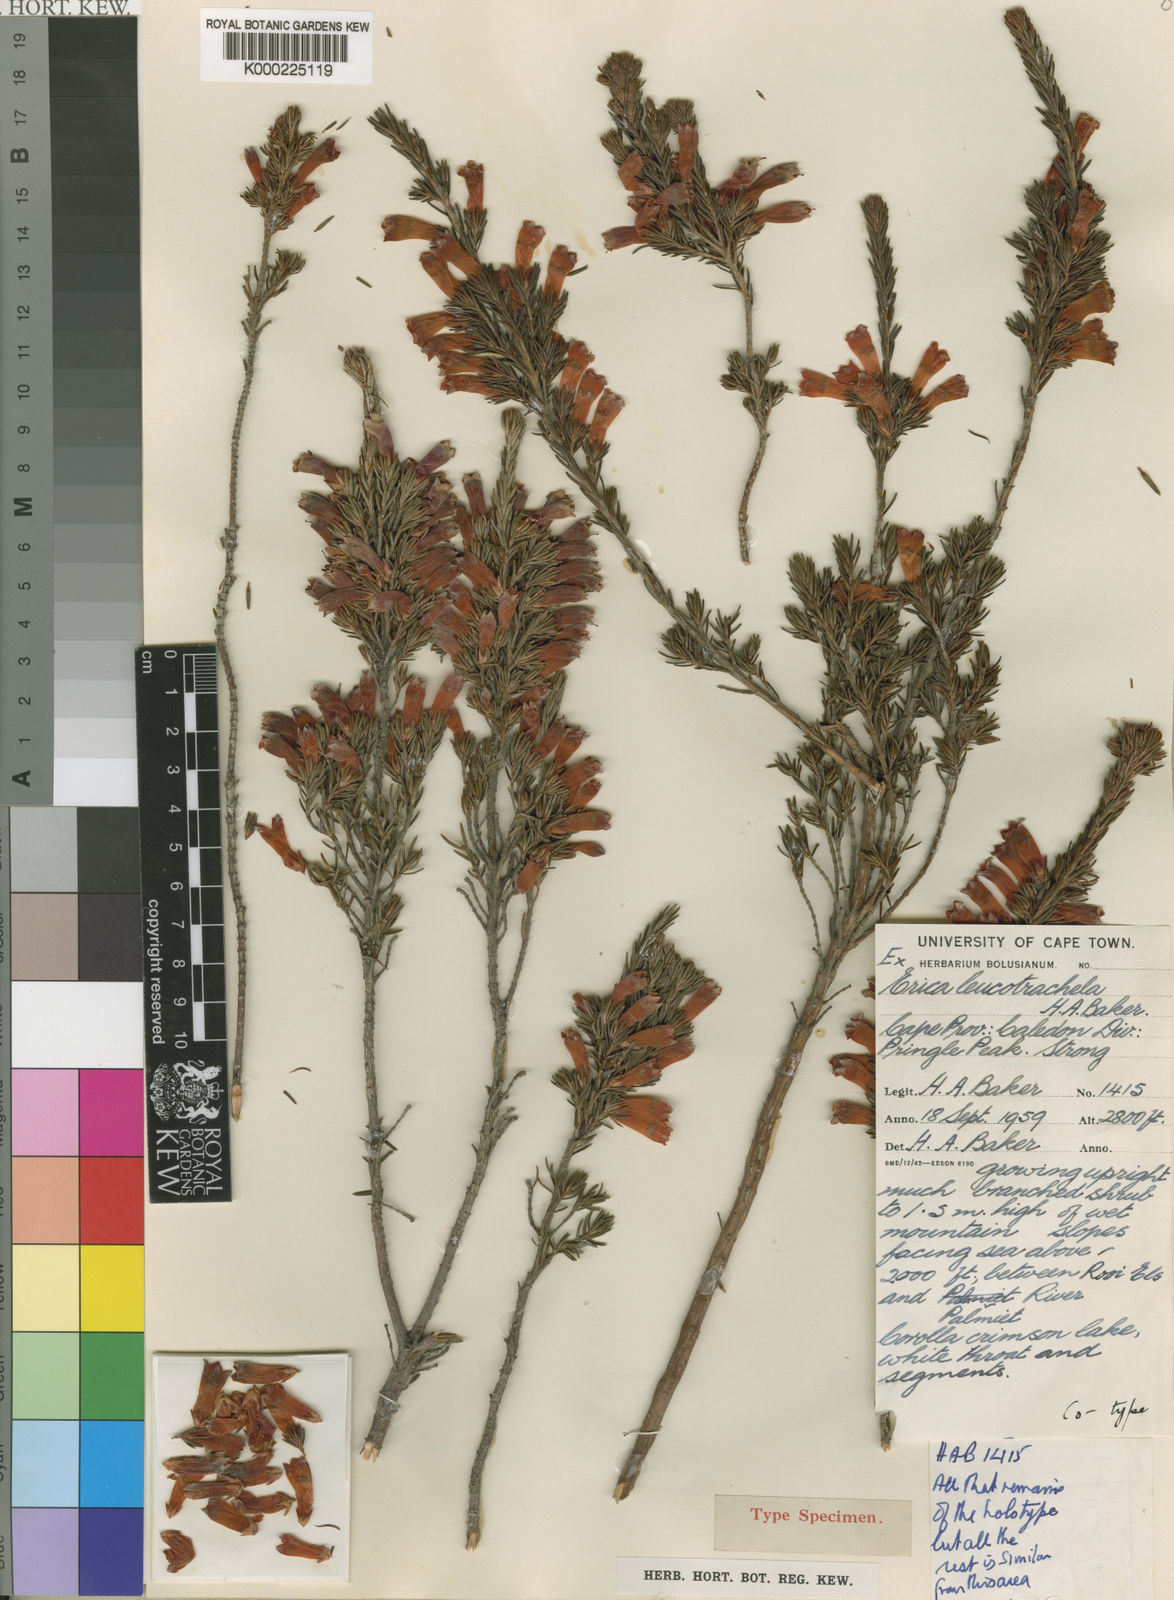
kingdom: Plantae
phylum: Tracheophyta
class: Magnoliopsida
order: Ericales
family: Ericaceae
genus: Erica
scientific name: Erica leucotrachela
